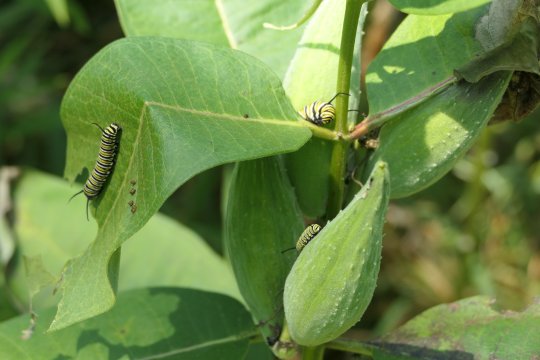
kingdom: Animalia
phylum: Arthropoda
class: Insecta
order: Lepidoptera
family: Nymphalidae
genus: Danaus
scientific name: Danaus plexippus
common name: Monarch
